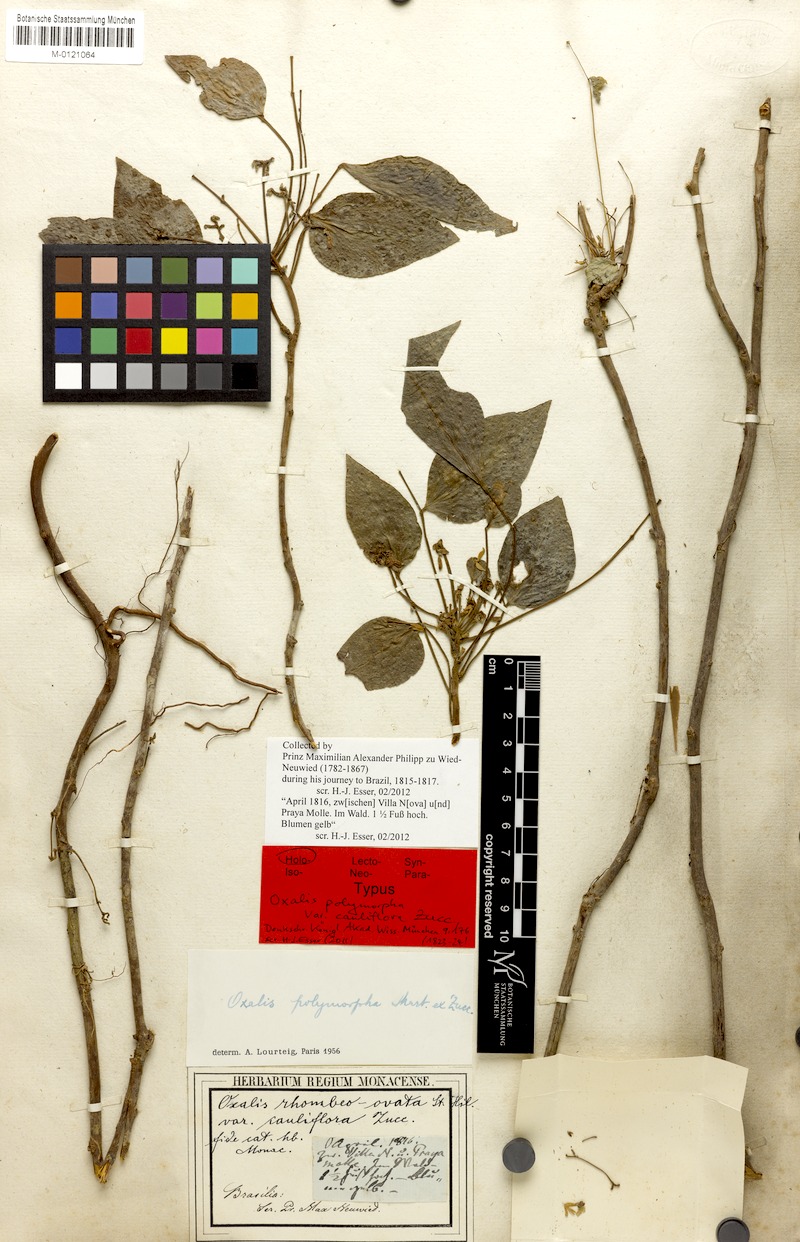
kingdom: Plantae
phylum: Tracheophyta
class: Magnoliopsida
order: Oxalidales
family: Oxalidaceae
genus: Oxalis
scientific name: Oxalis polymorpha
